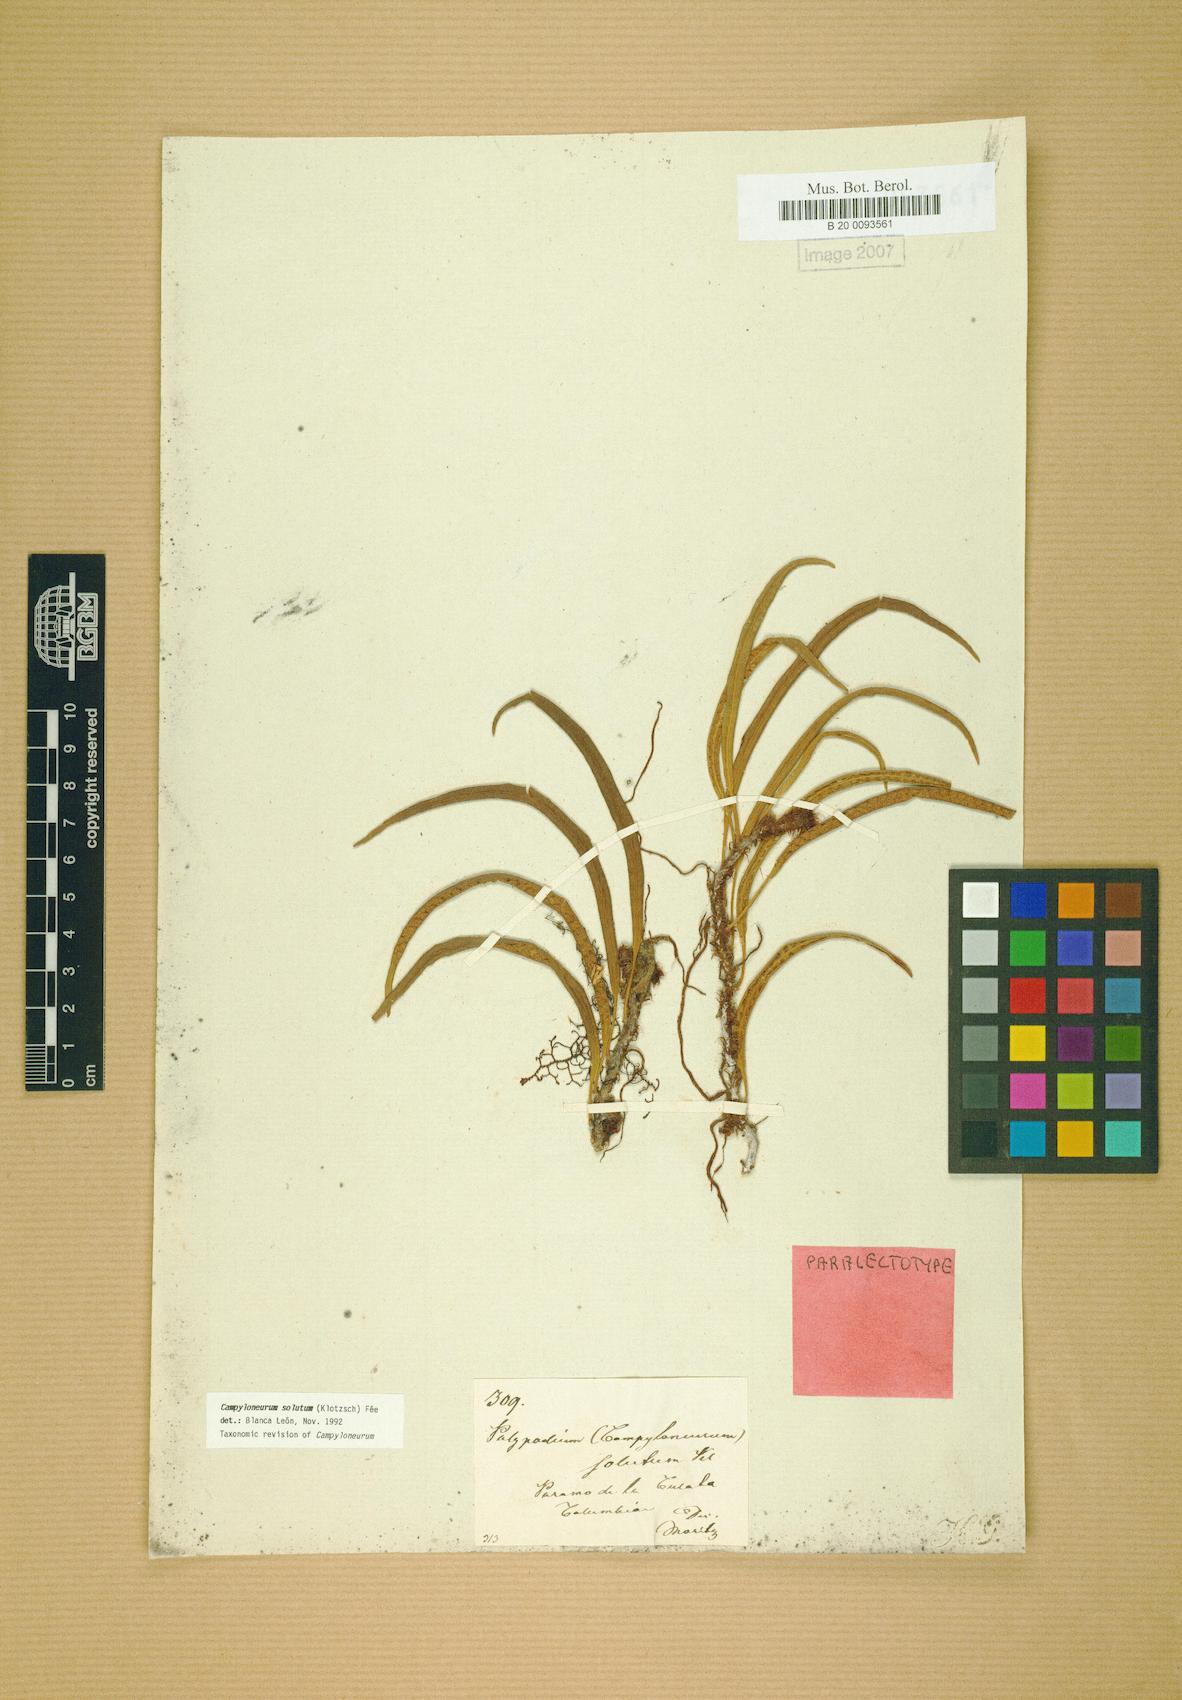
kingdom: Plantae
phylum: Tracheophyta
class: Polypodiopsida
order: Polypodiales
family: Polypodiaceae
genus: Campyloneurum
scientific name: Campyloneurum solutum
